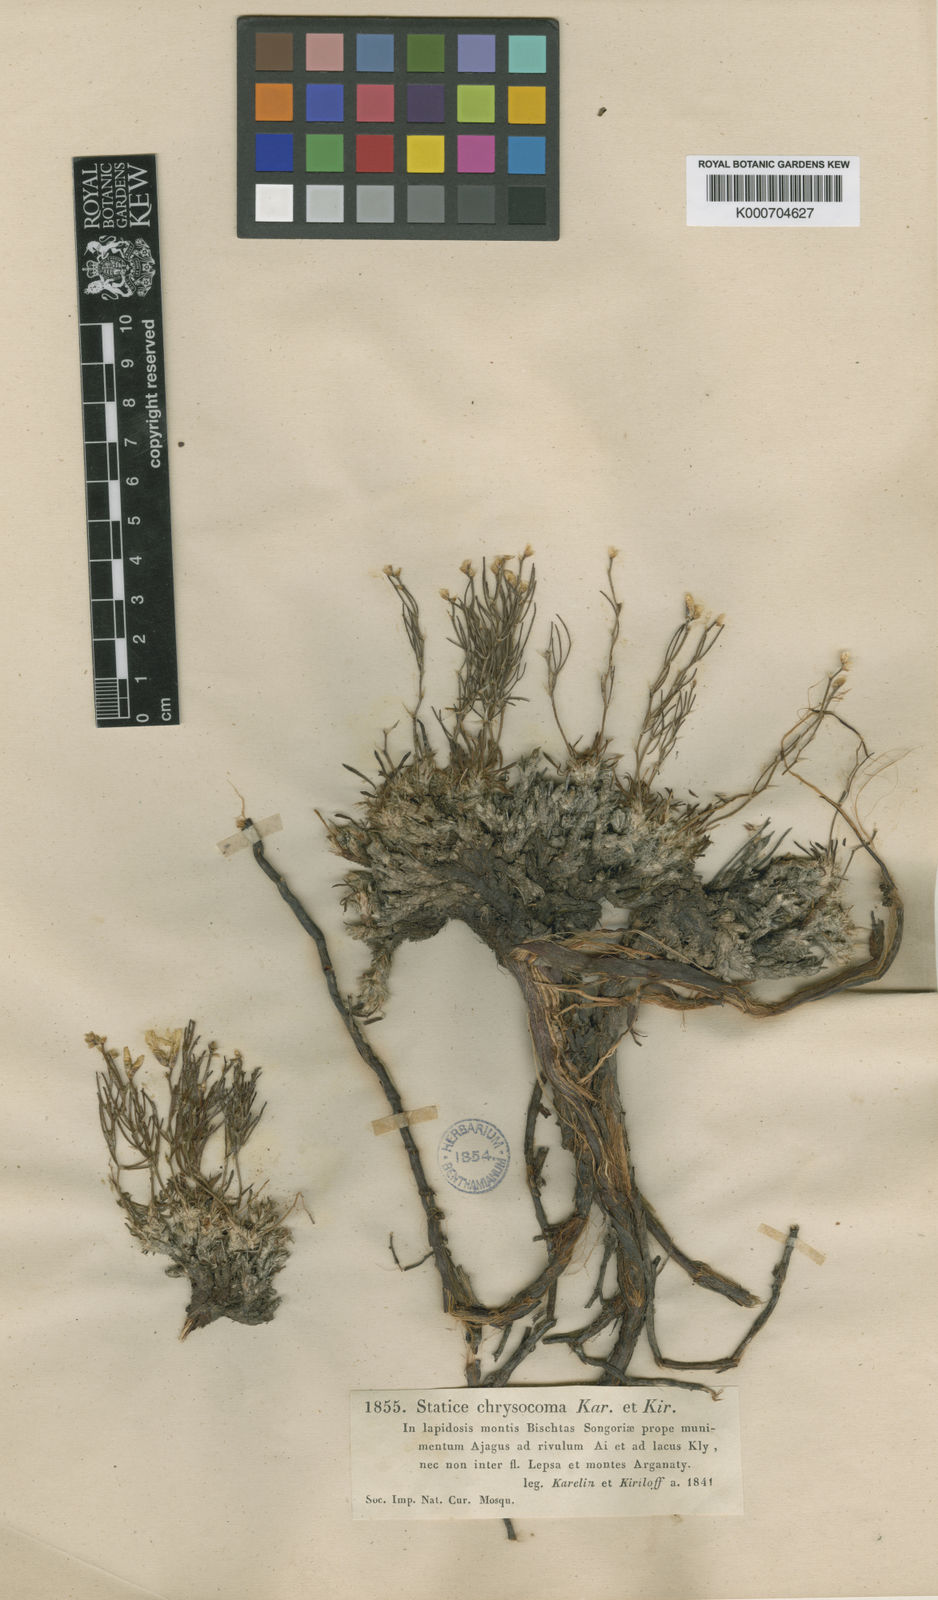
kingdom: Plantae
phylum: Tracheophyta
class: Magnoliopsida
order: Caryophyllales
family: Plumbaginaceae
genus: Limonium
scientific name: Limonium chrysocomum
